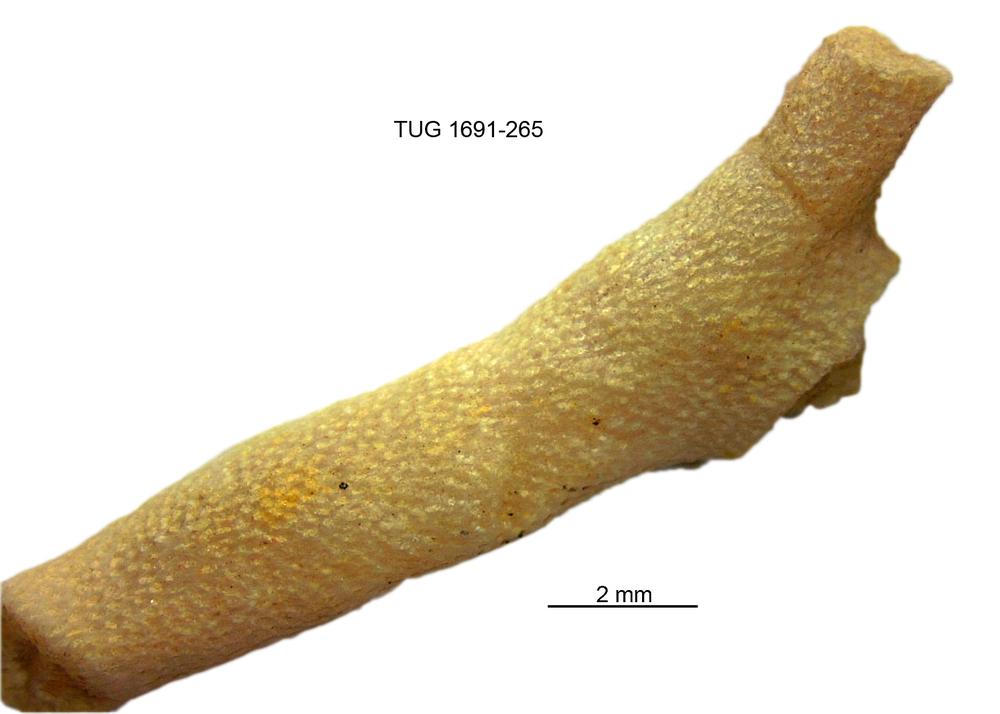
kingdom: Animalia
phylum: Bryozoa
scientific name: Bryozoa
